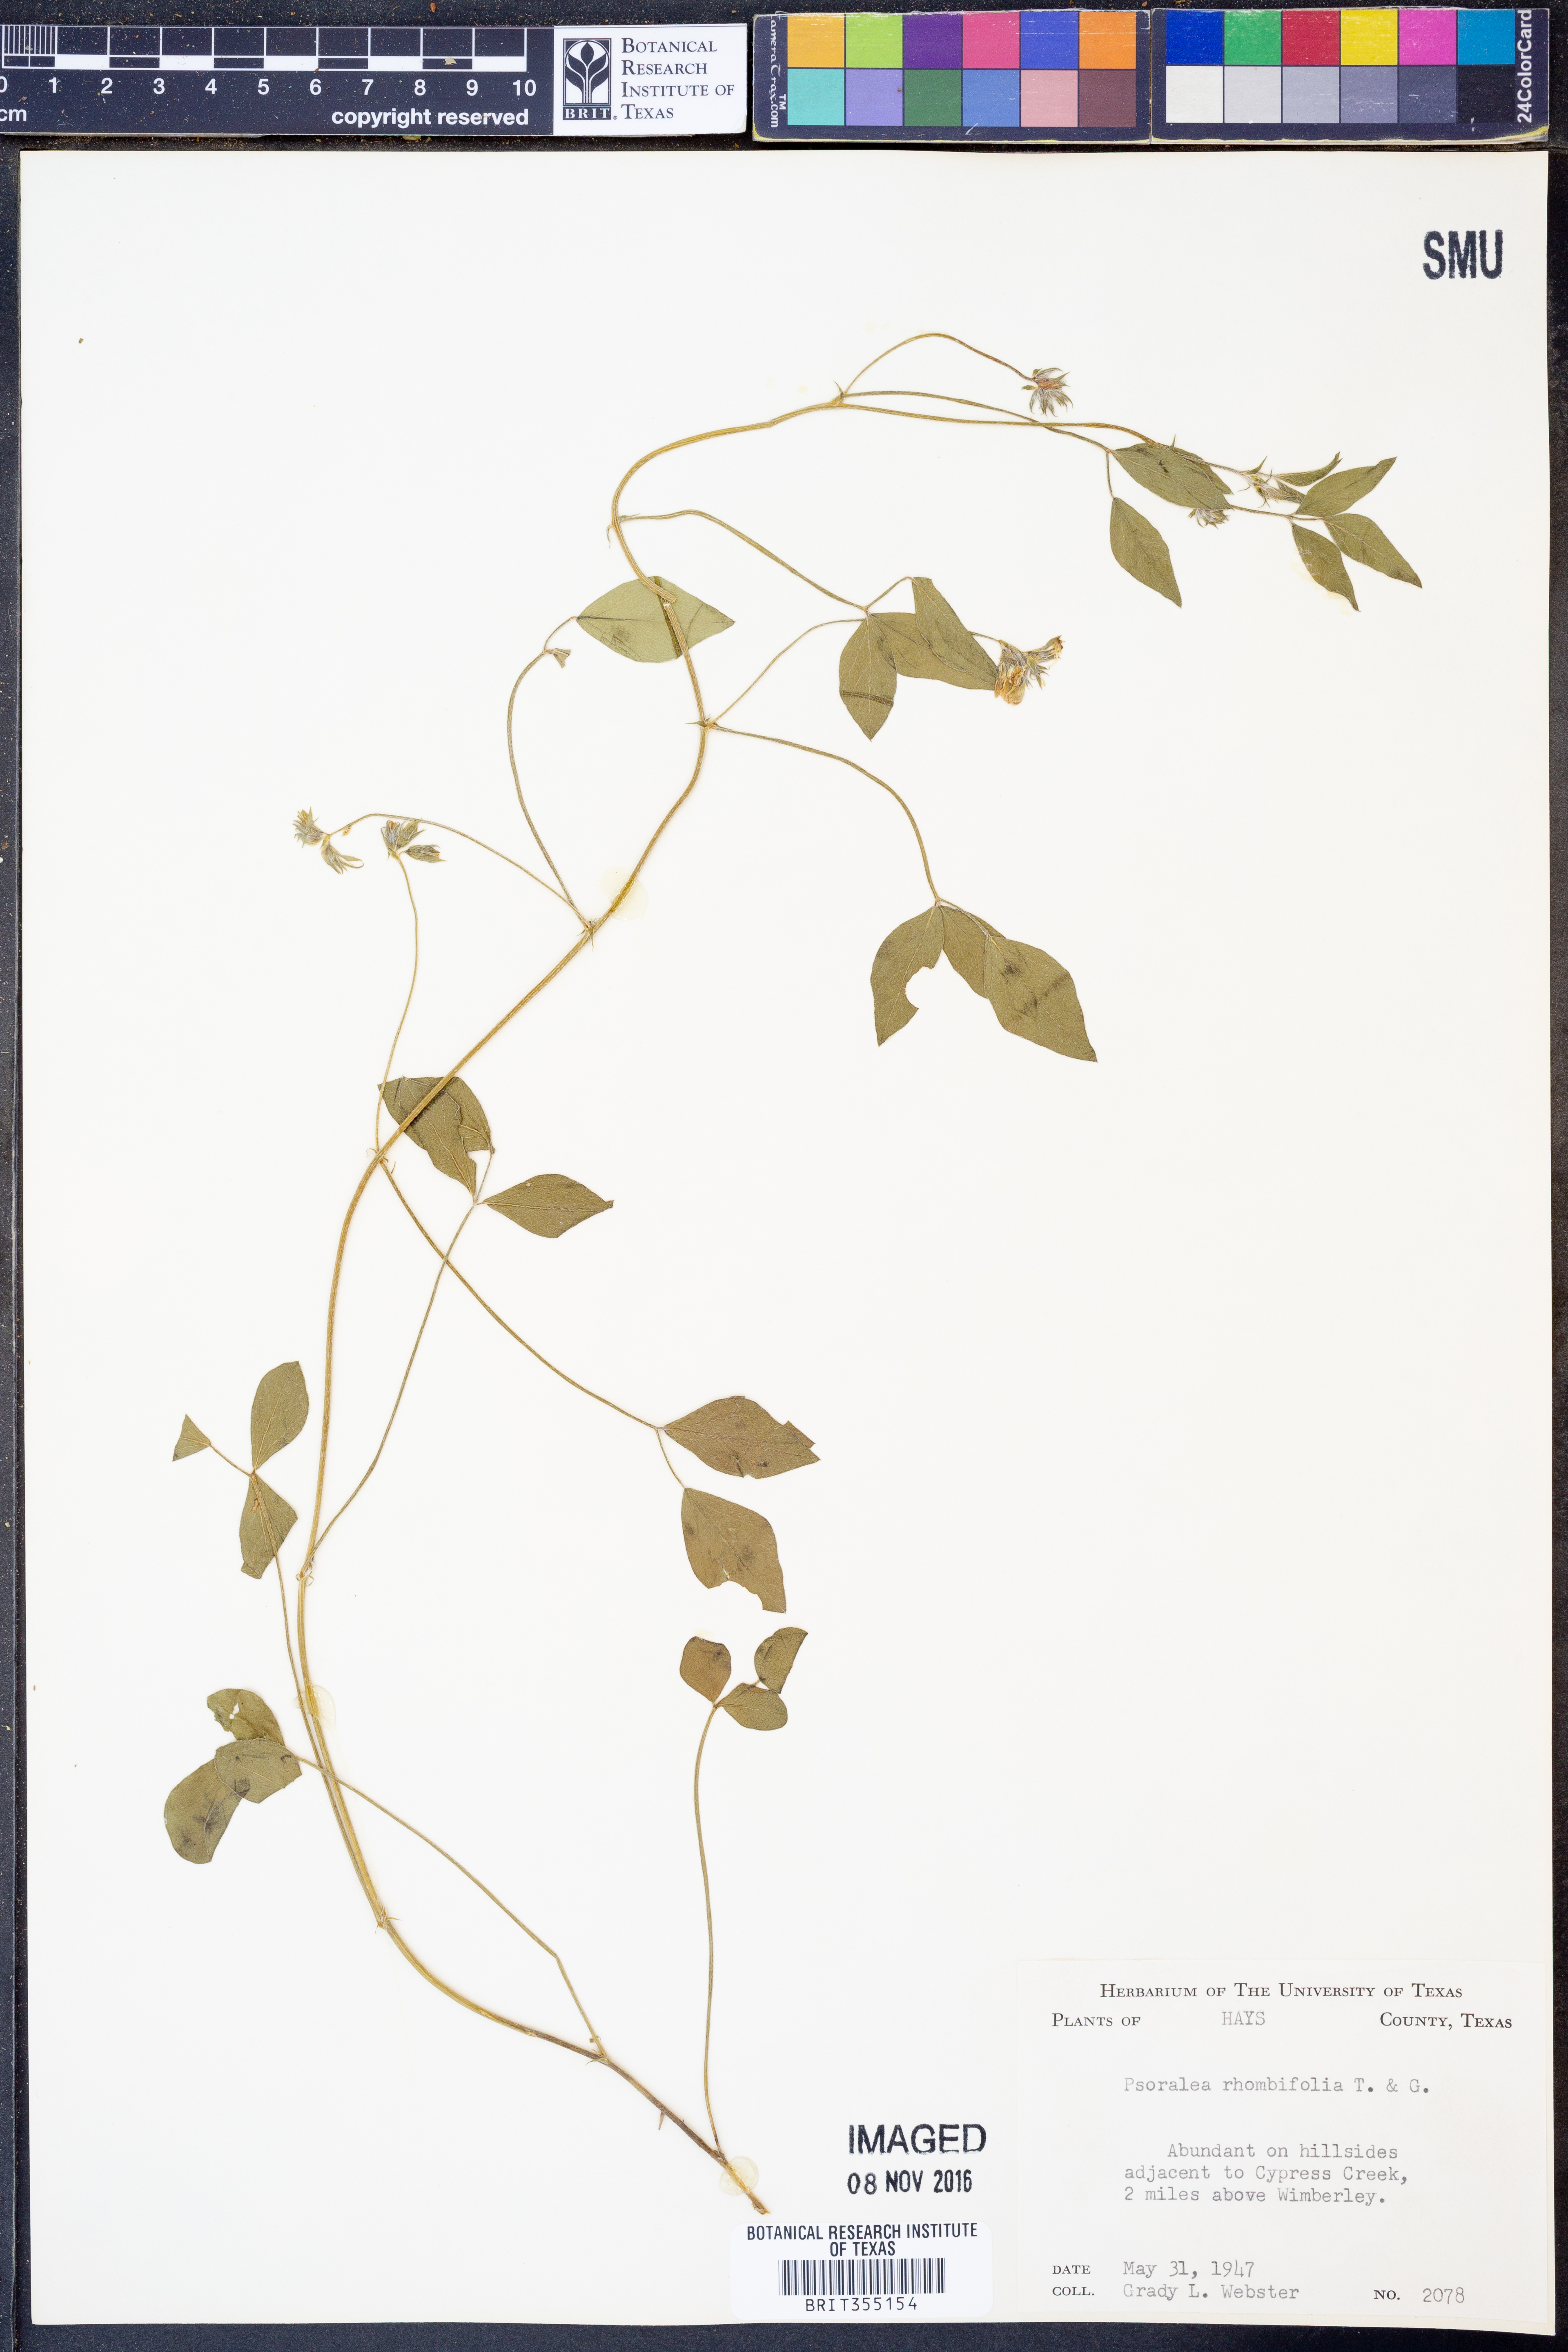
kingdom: Plantae
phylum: Tracheophyta
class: Magnoliopsida
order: Fabales
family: Fabaceae
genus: Pediomelum
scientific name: Pediomelum rhombifolium
